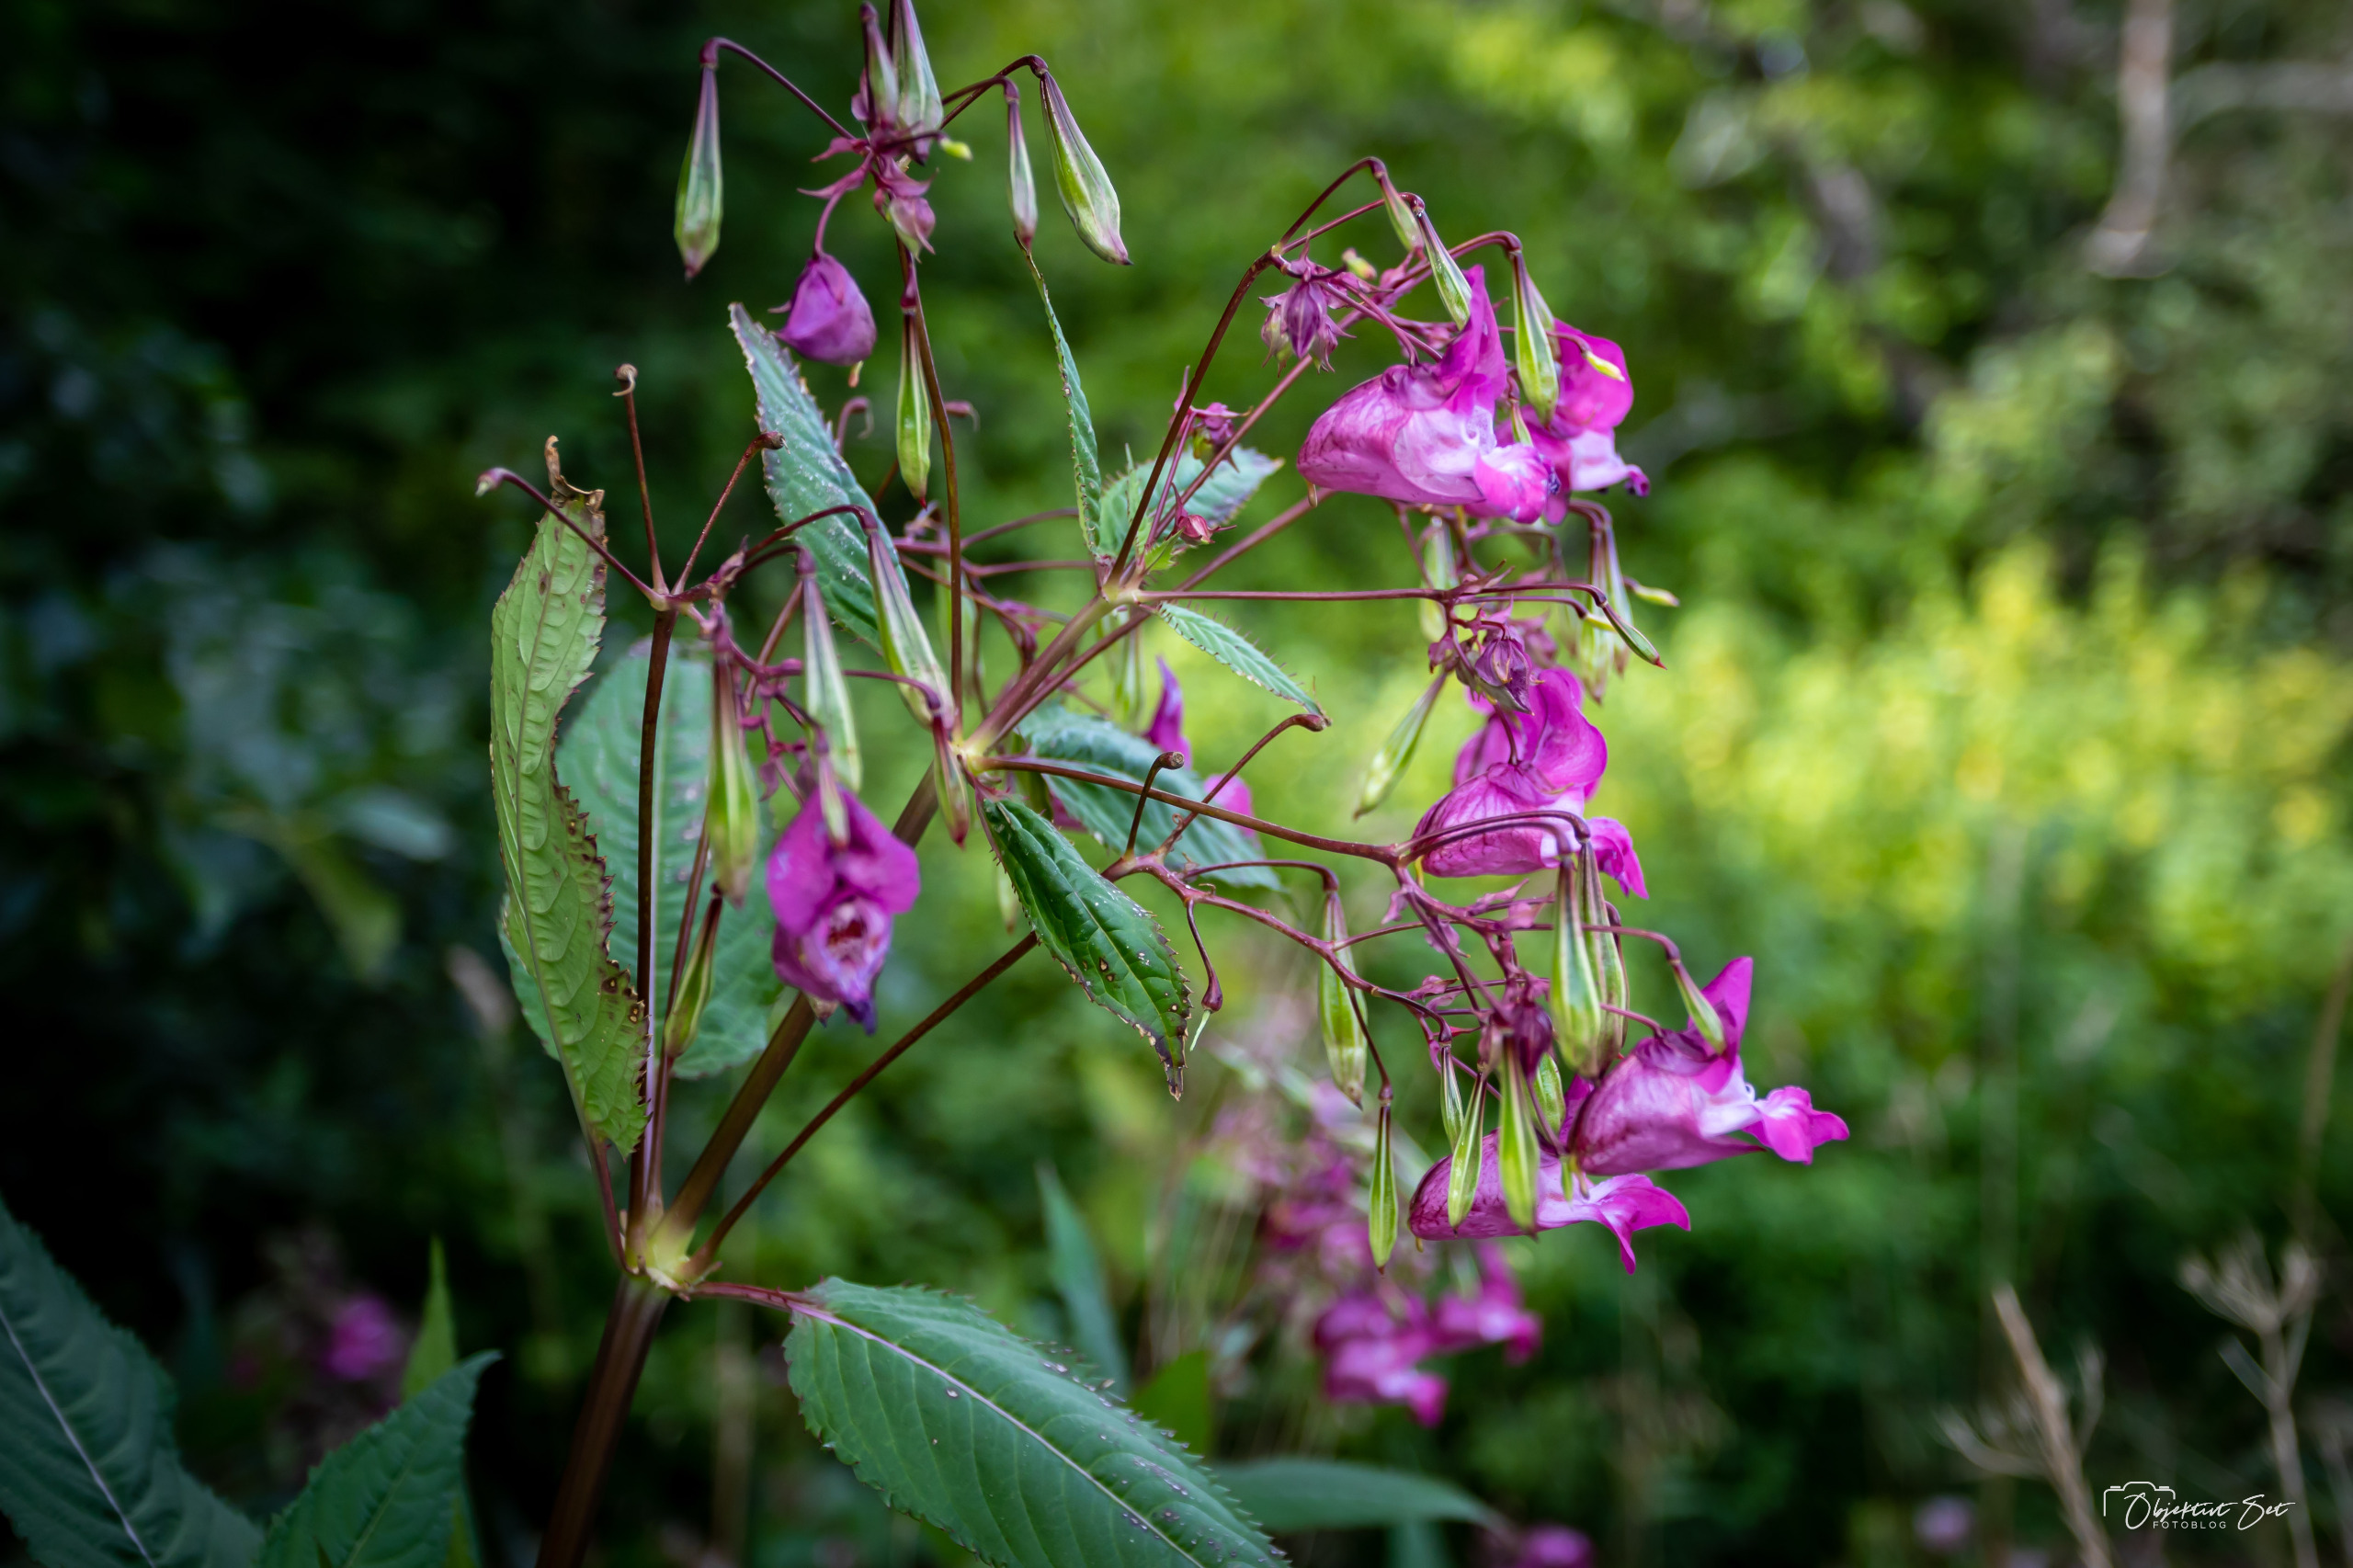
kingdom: Plantae
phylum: Tracheophyta
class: Magnoliopsida
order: Ericales
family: Balsaminaceae
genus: Impatiens
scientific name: Impatiens glandulifera
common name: Kæmpe-balsamin
